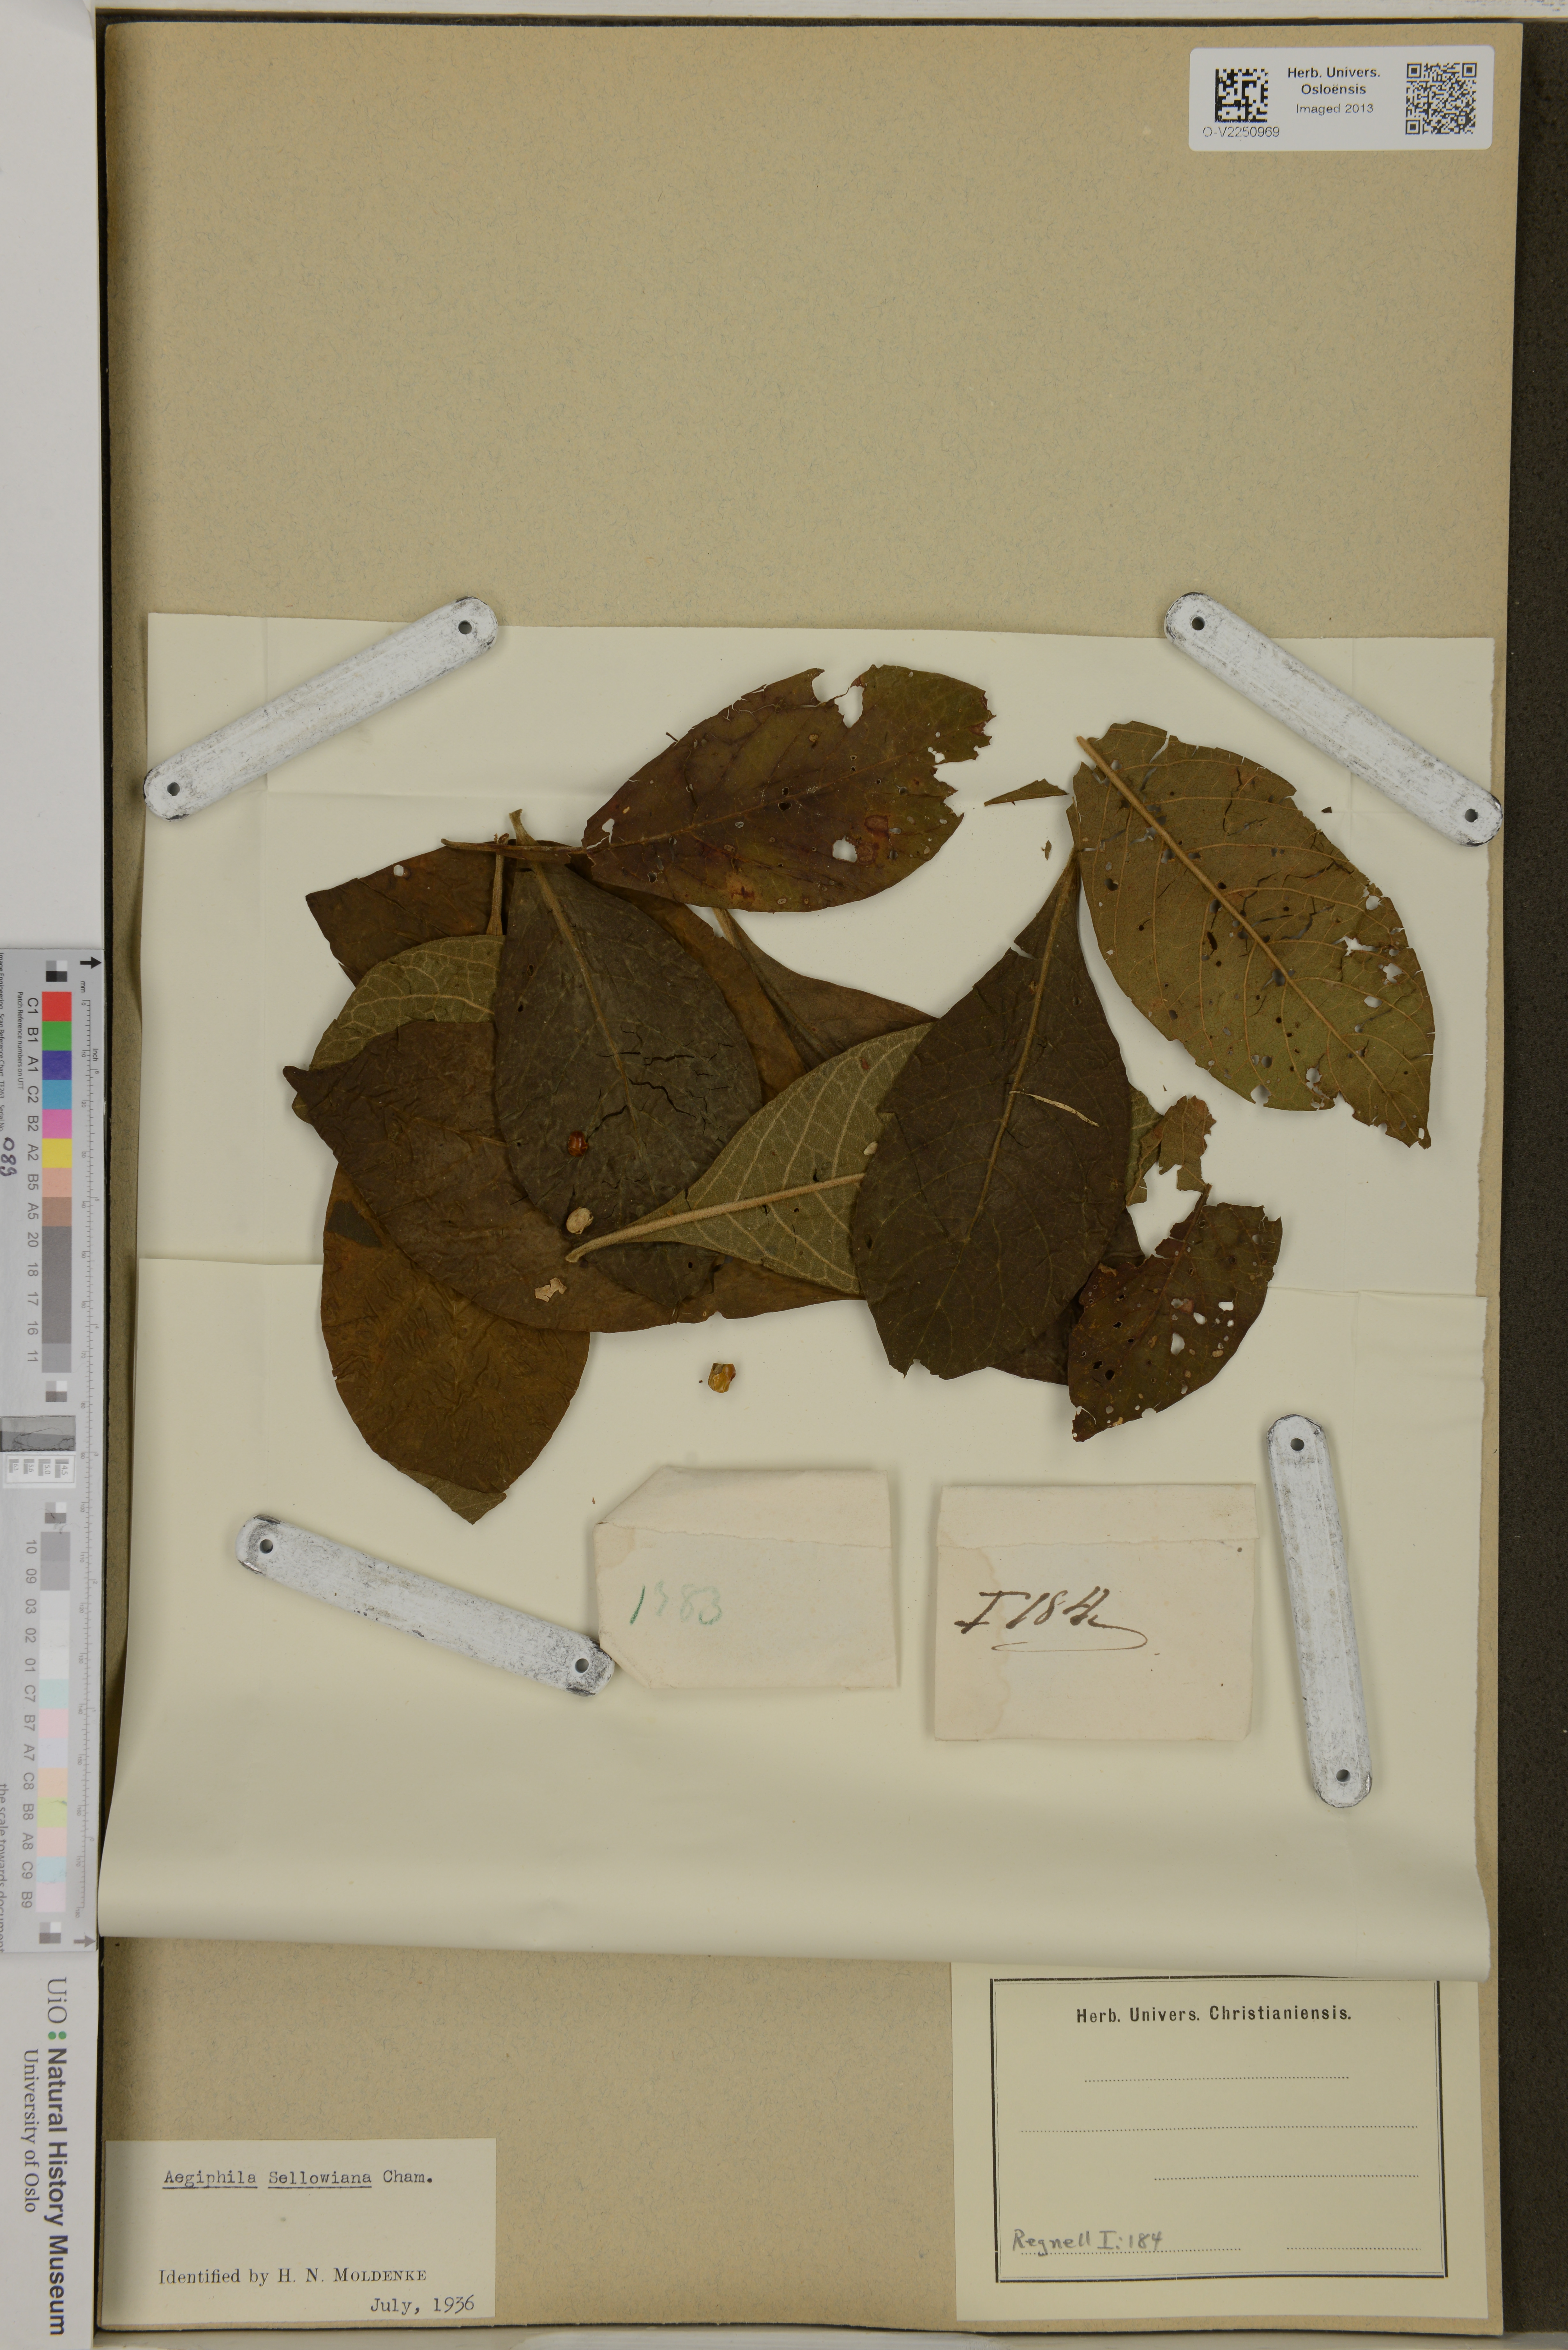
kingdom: Plantae
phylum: Tracheophyta
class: Magnoliopsida
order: Lamiales
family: Lamiaceae
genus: Aegiphila
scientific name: Aegiphila verticillata
